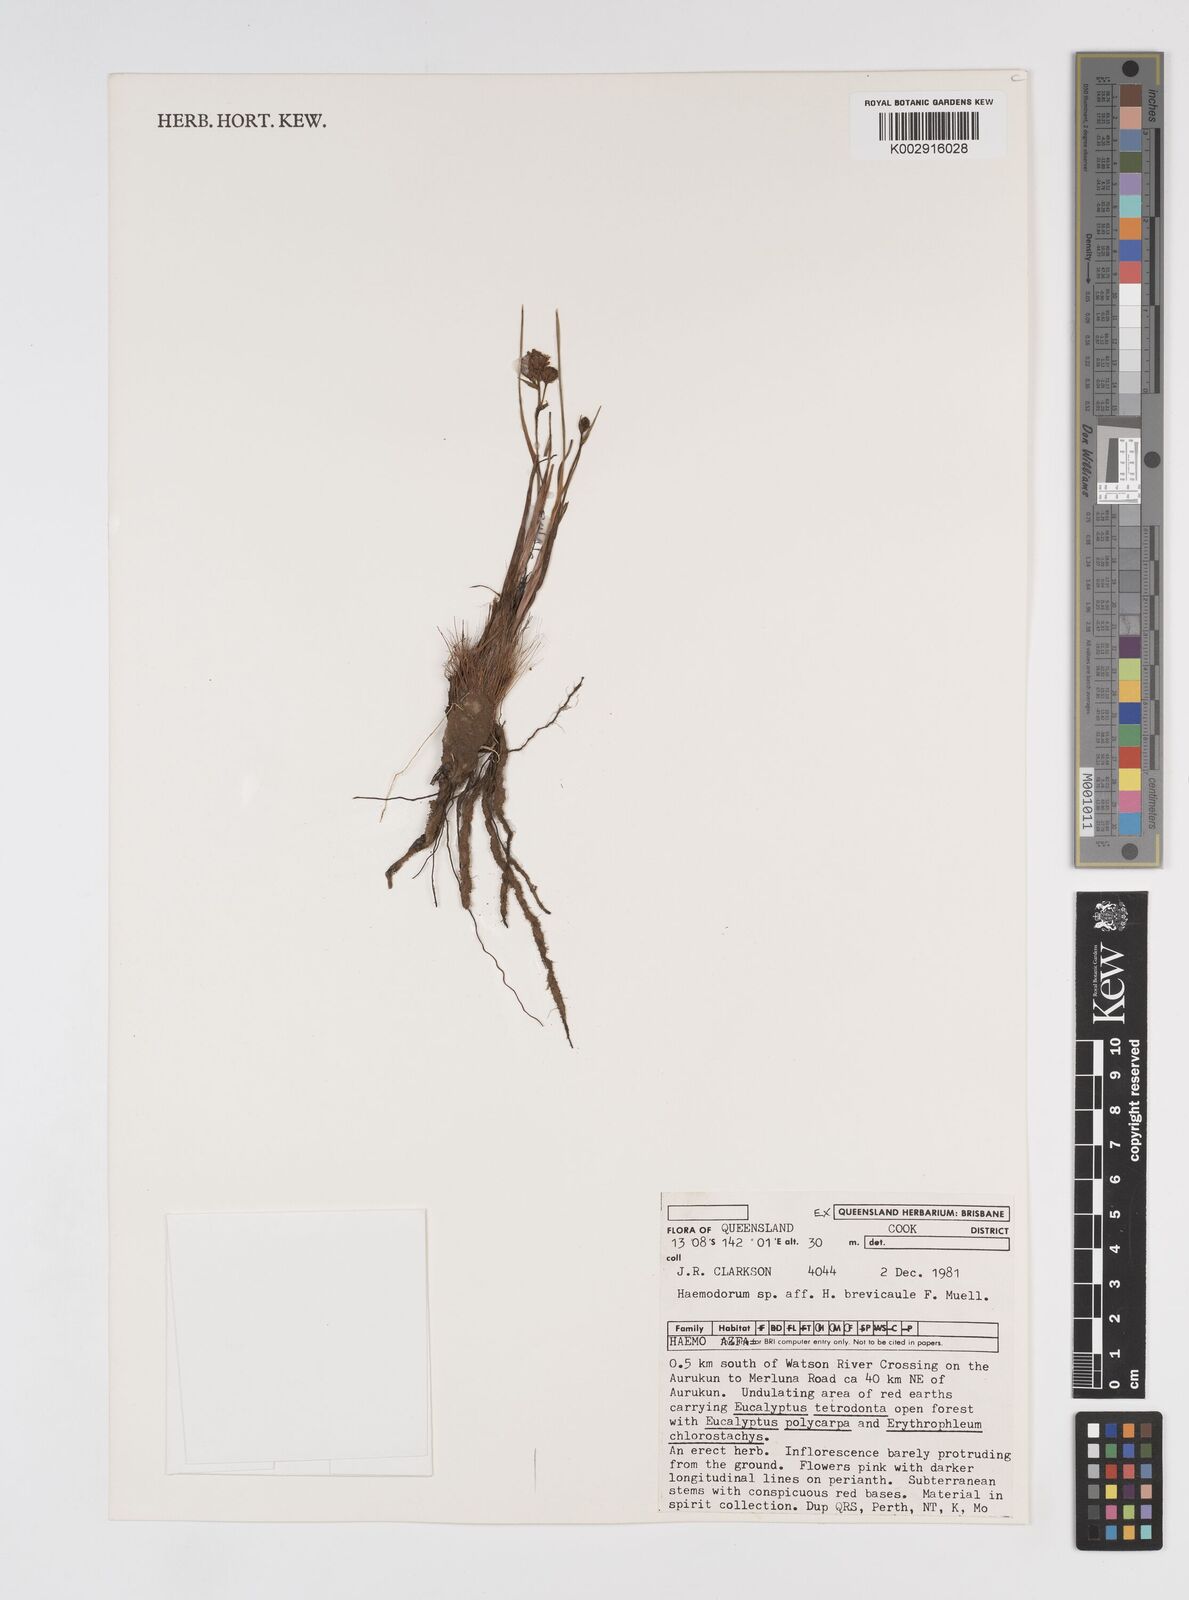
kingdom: Plantae
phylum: Tracheophyta
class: Liliopsida
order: Commelinales
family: Haemodoraceae
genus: Haemodorum
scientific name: Haemodorum brevicaule
